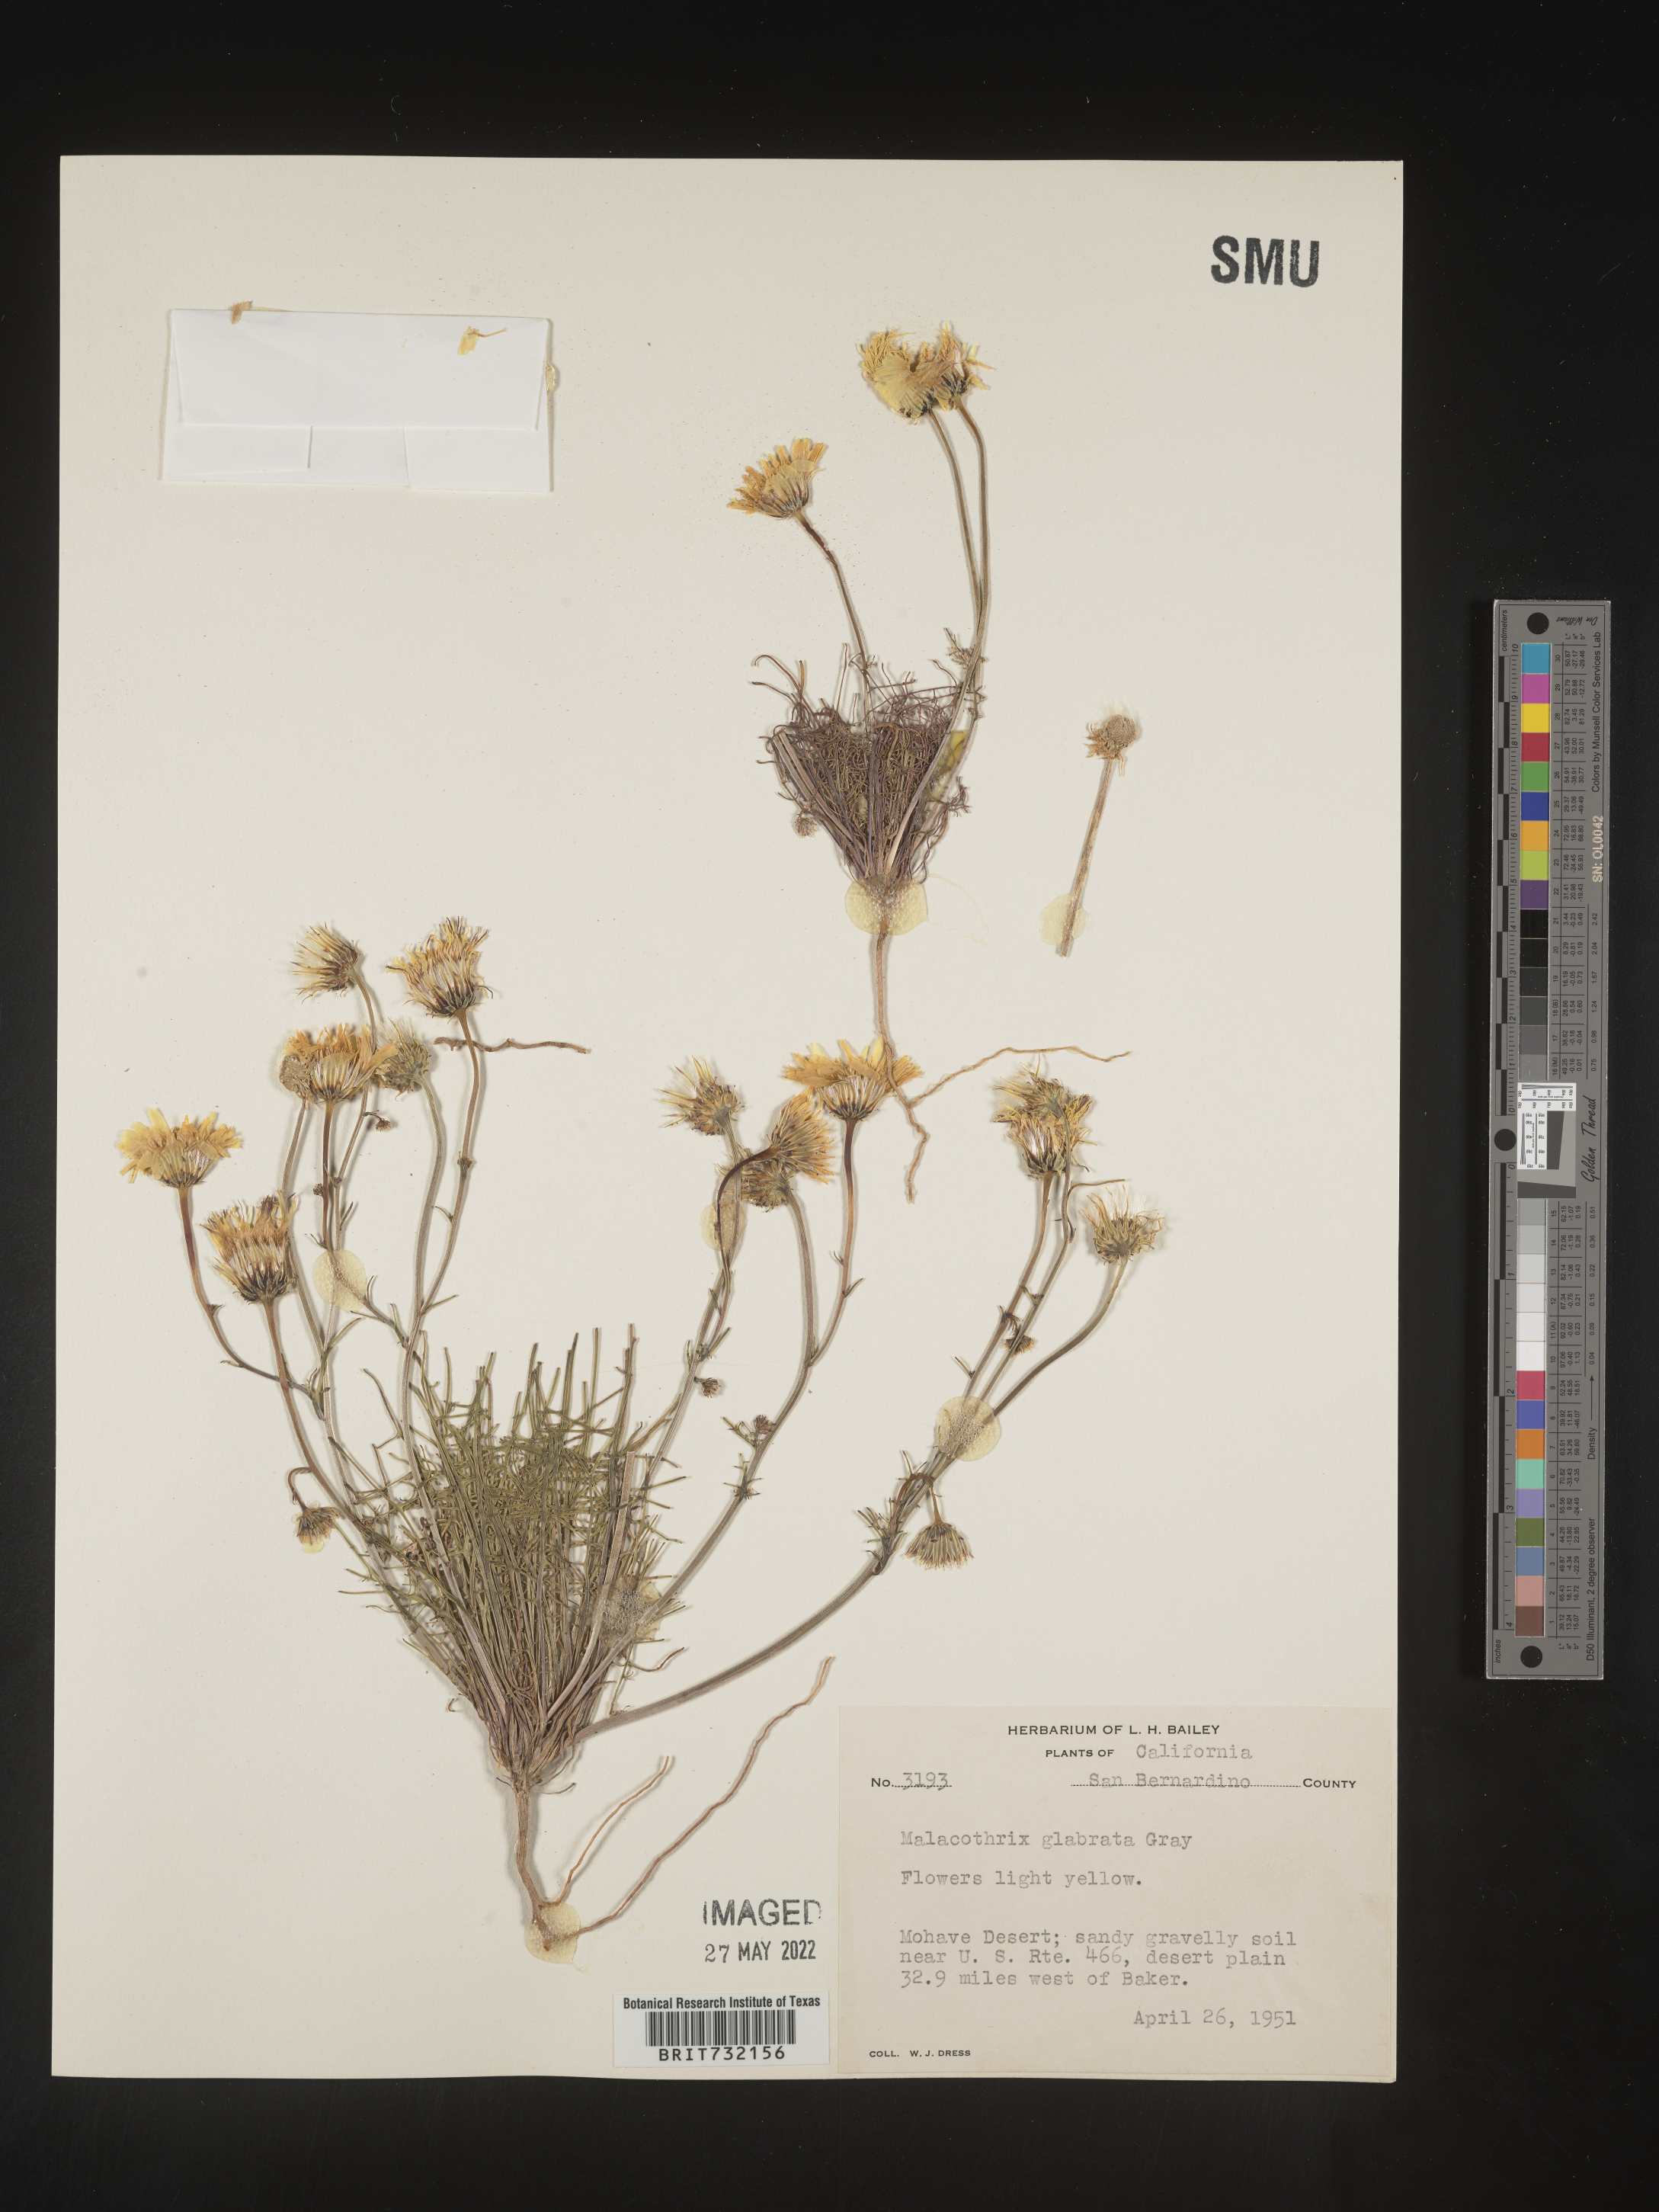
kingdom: Plantae
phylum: Tracheophyta
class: Magnoliopsida
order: Asterales
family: Asteraceae
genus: Malacothrix
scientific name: Malacothrix glabrata
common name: Smooth desert-dandelion
